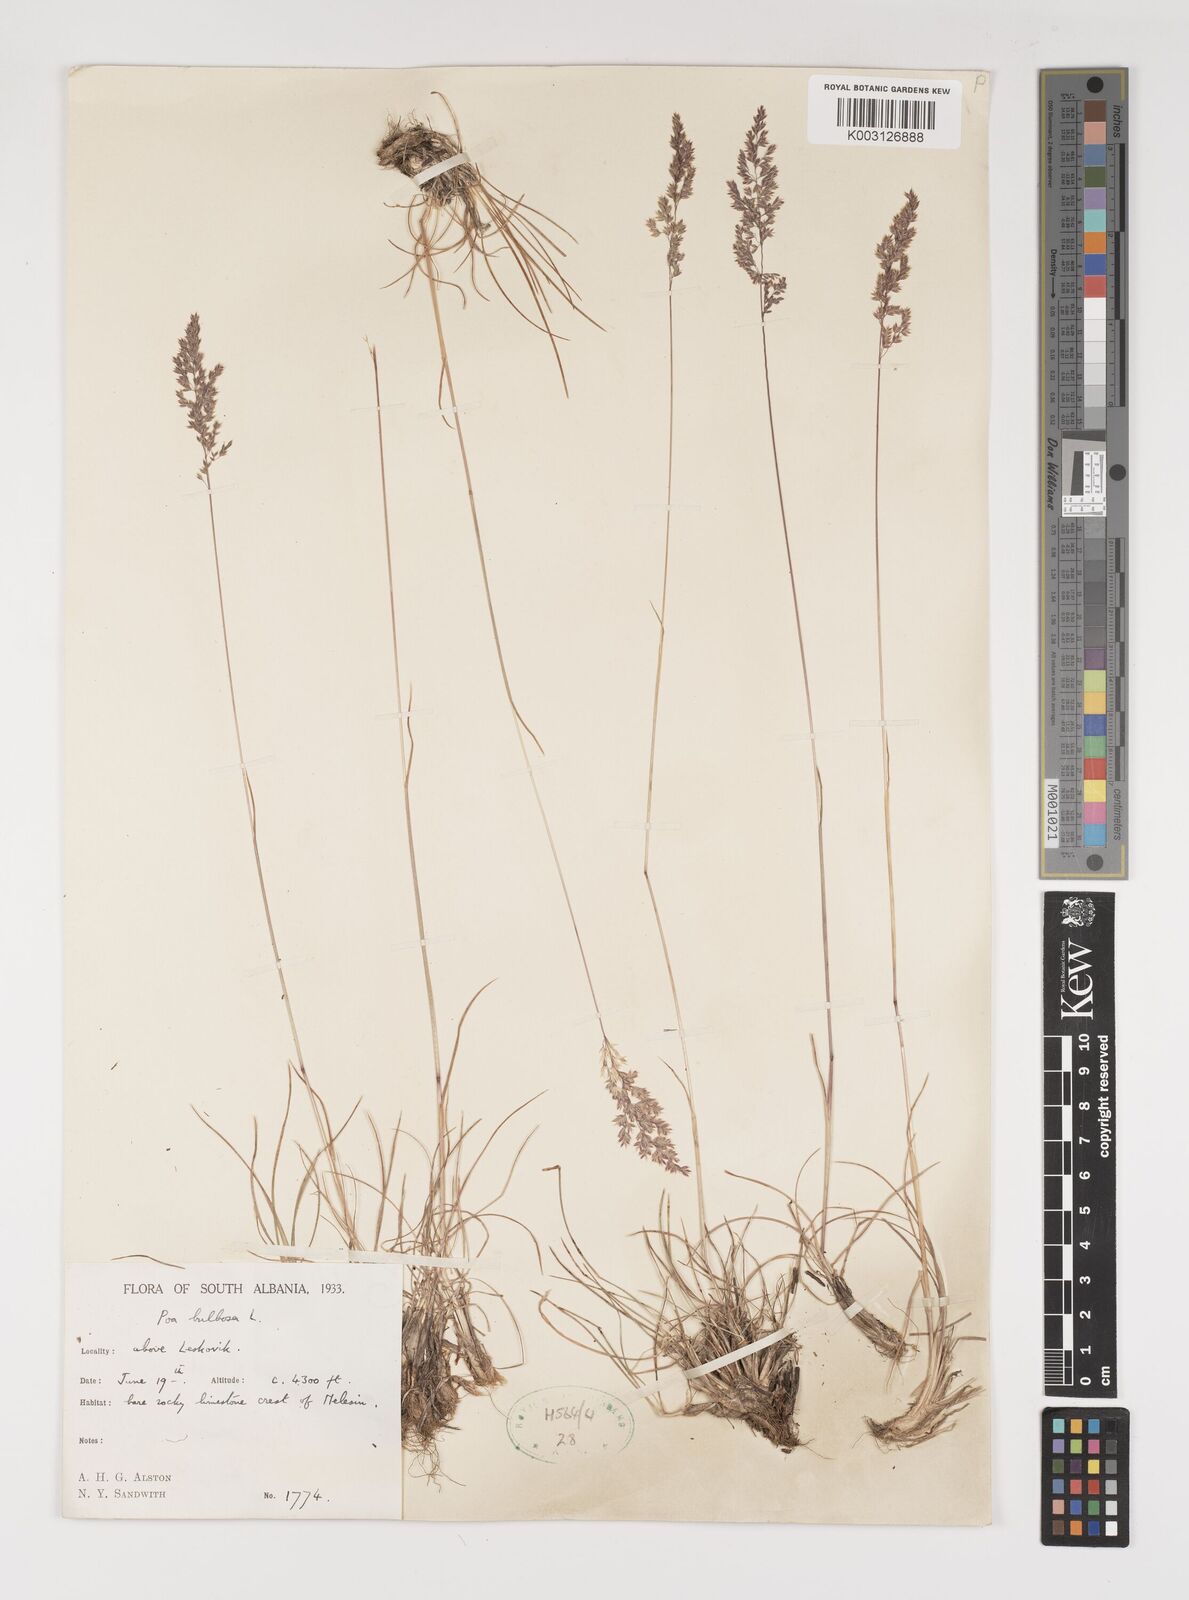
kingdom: Plantae
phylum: Tracheophyta
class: Liliopsida
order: Poales
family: Poaceae
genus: Poa
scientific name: Poa bulbosa
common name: Bulbous bluegrass
